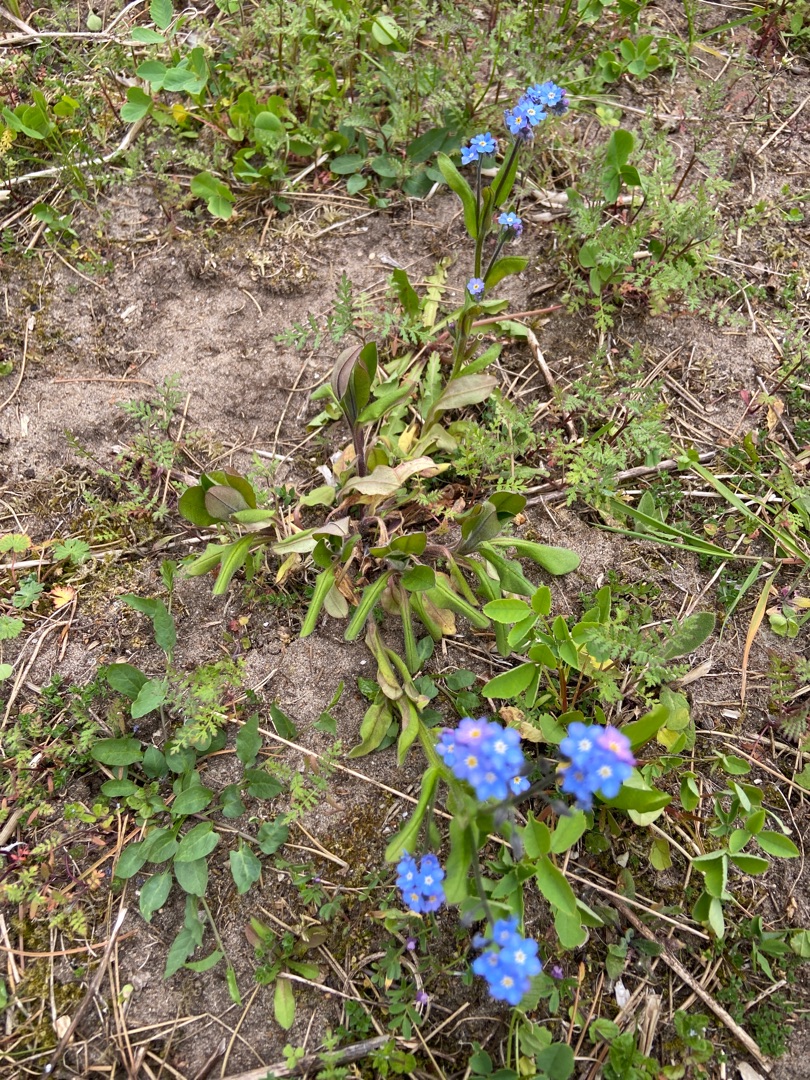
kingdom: Plantae
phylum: Tracheophyta
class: Magnoliopsida
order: Boraginales
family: Boraginaceae
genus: Myosotis
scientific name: Myosotis sylvatica
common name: Skov-forglemmigej
